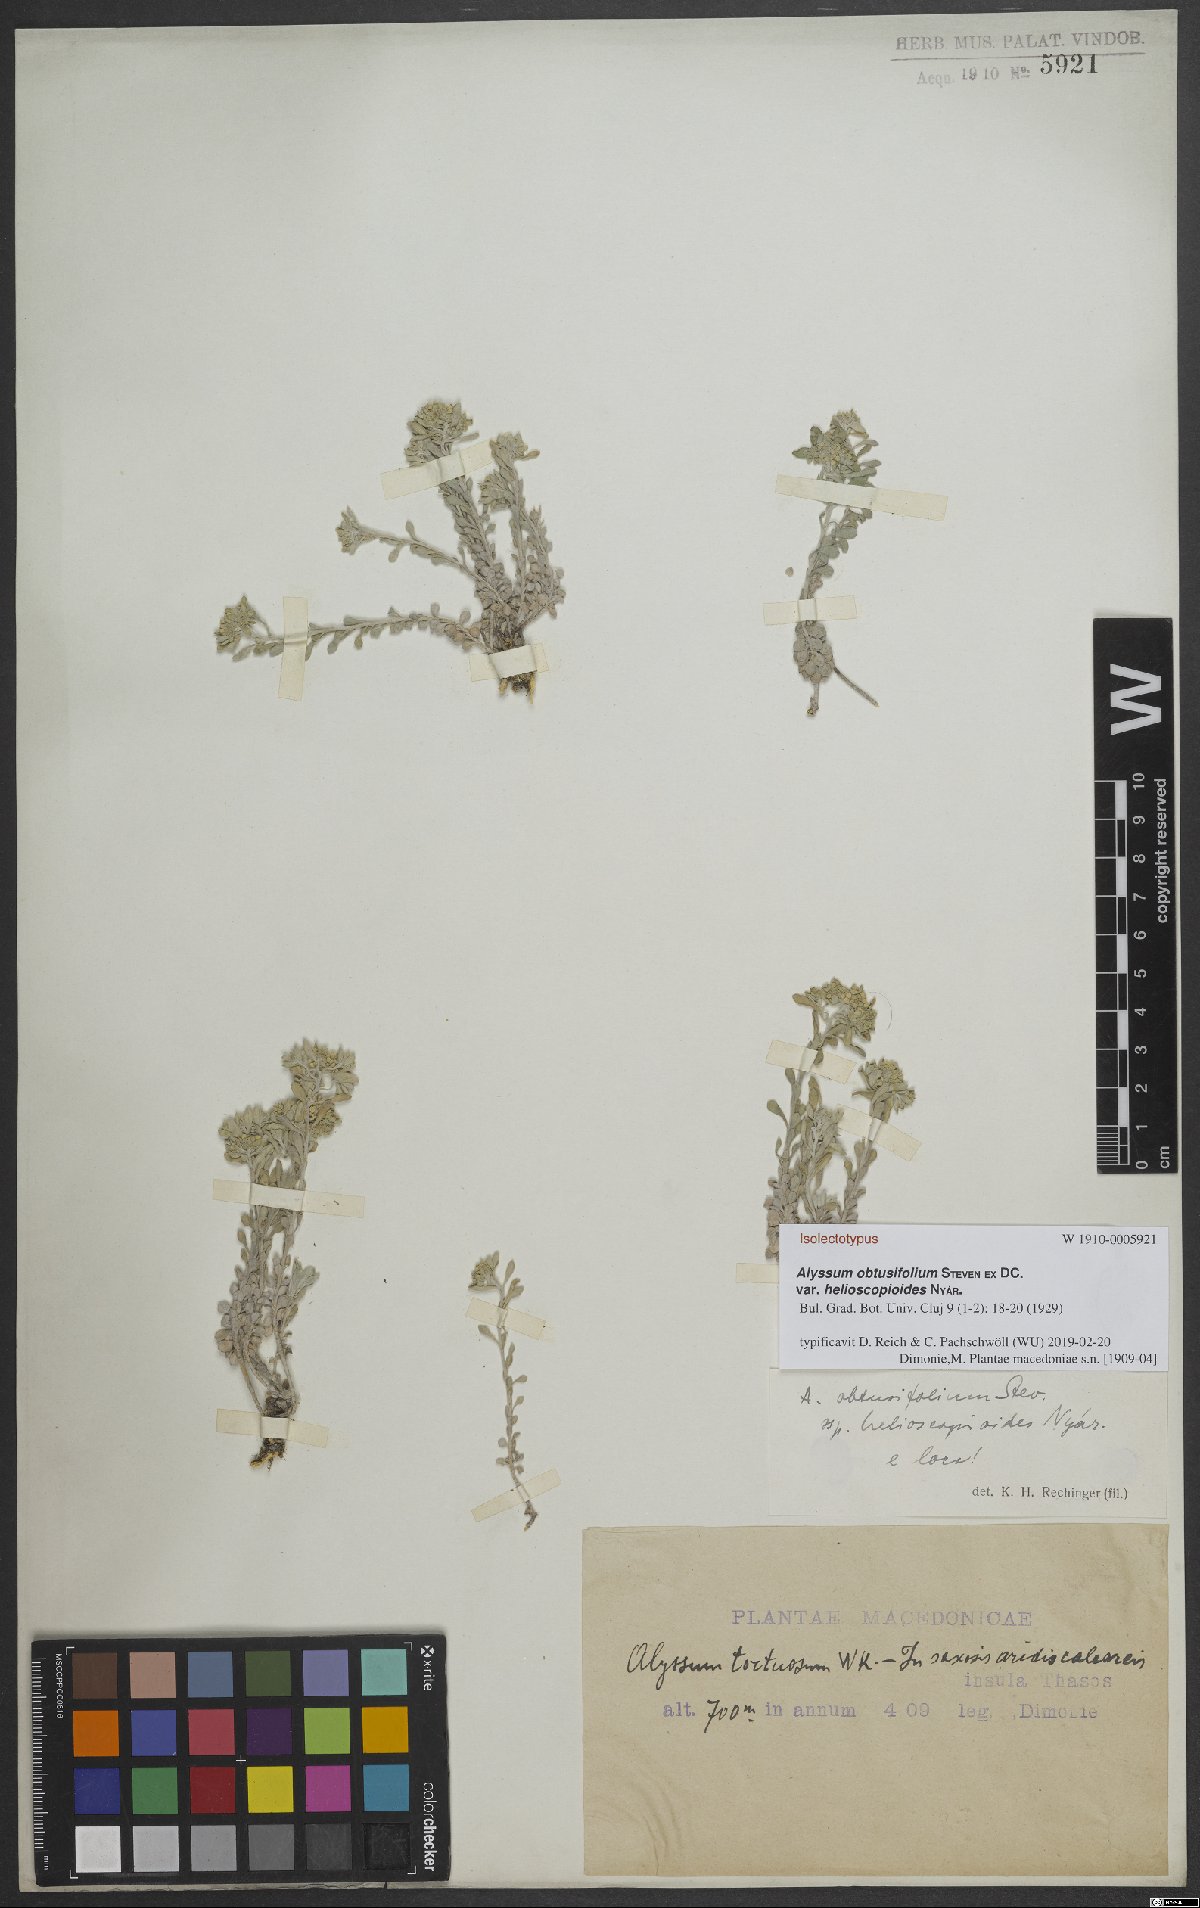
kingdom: Plantae
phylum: Tracheophyta
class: Magnoliopsida
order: Brassicales
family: Brassicaceae
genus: Odontarrhena
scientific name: Odontarrhena obtusifolia
